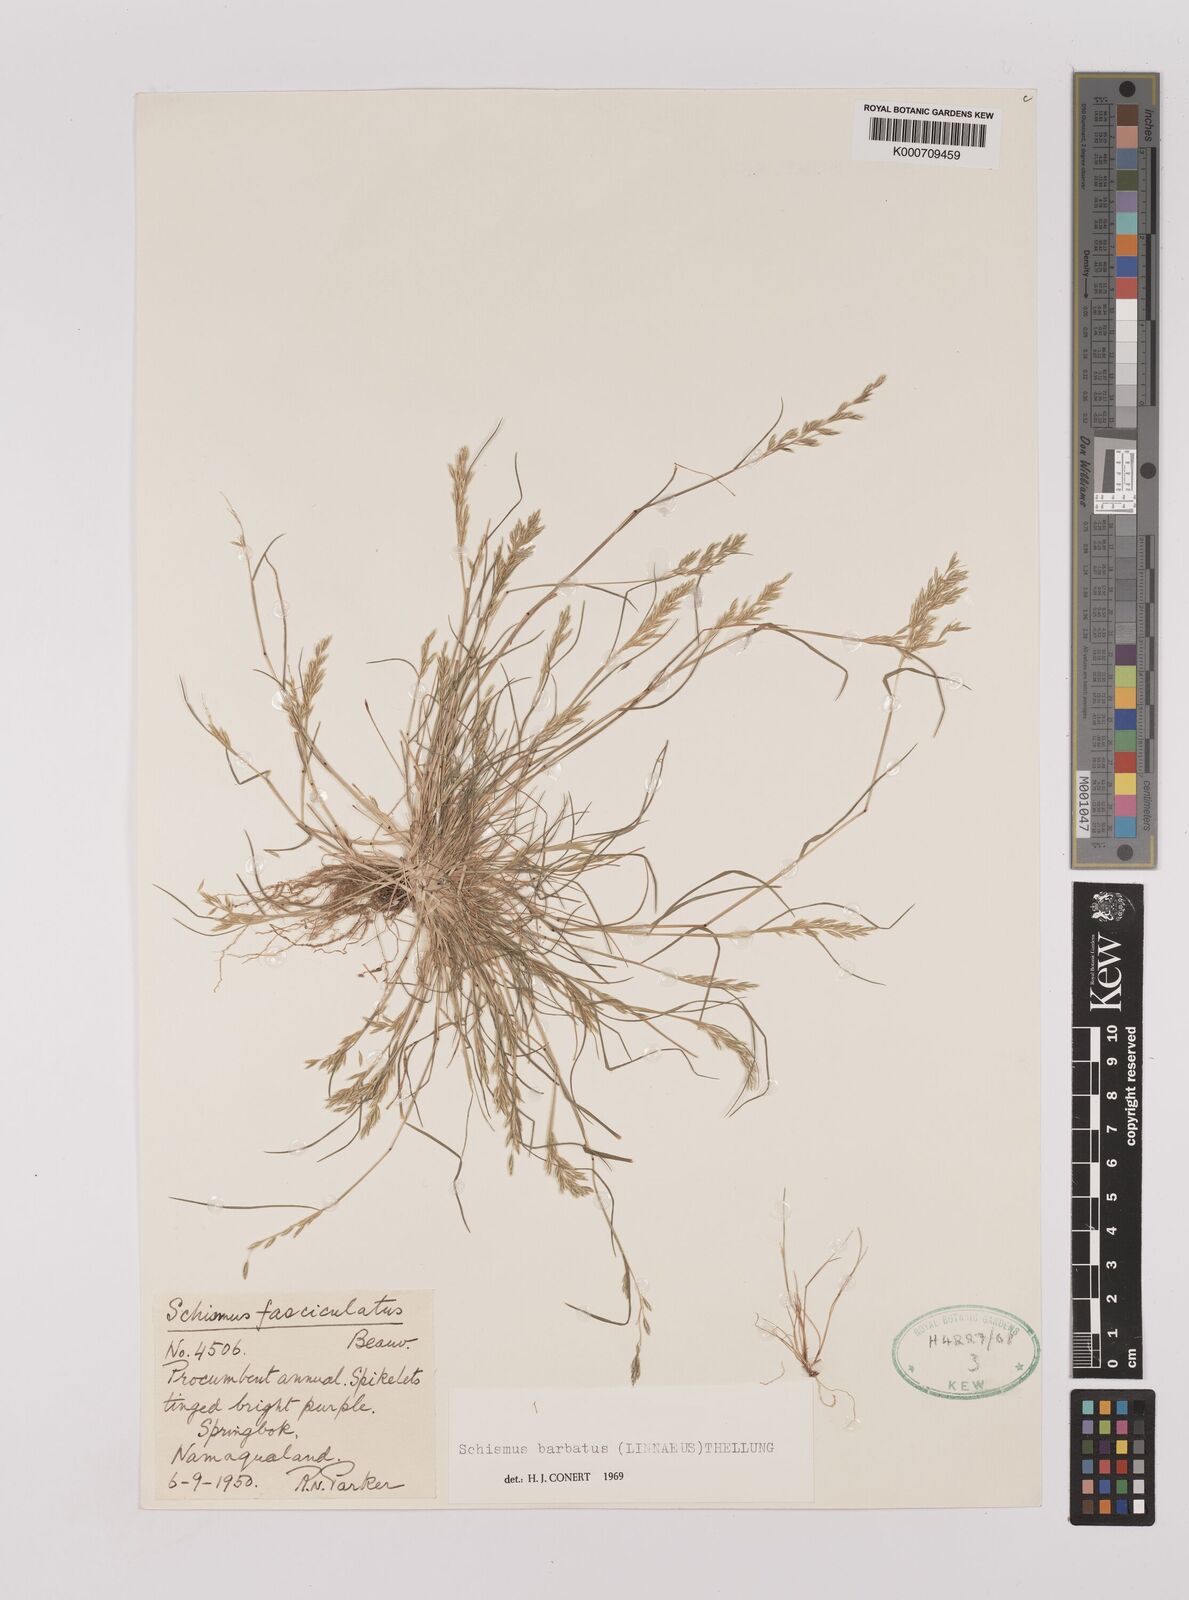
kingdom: Plantae
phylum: Tracheophyta
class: Liliopsida
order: Poales
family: Poaceae
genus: Schismus
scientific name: Schismus barbatus
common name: Kelch-grass
